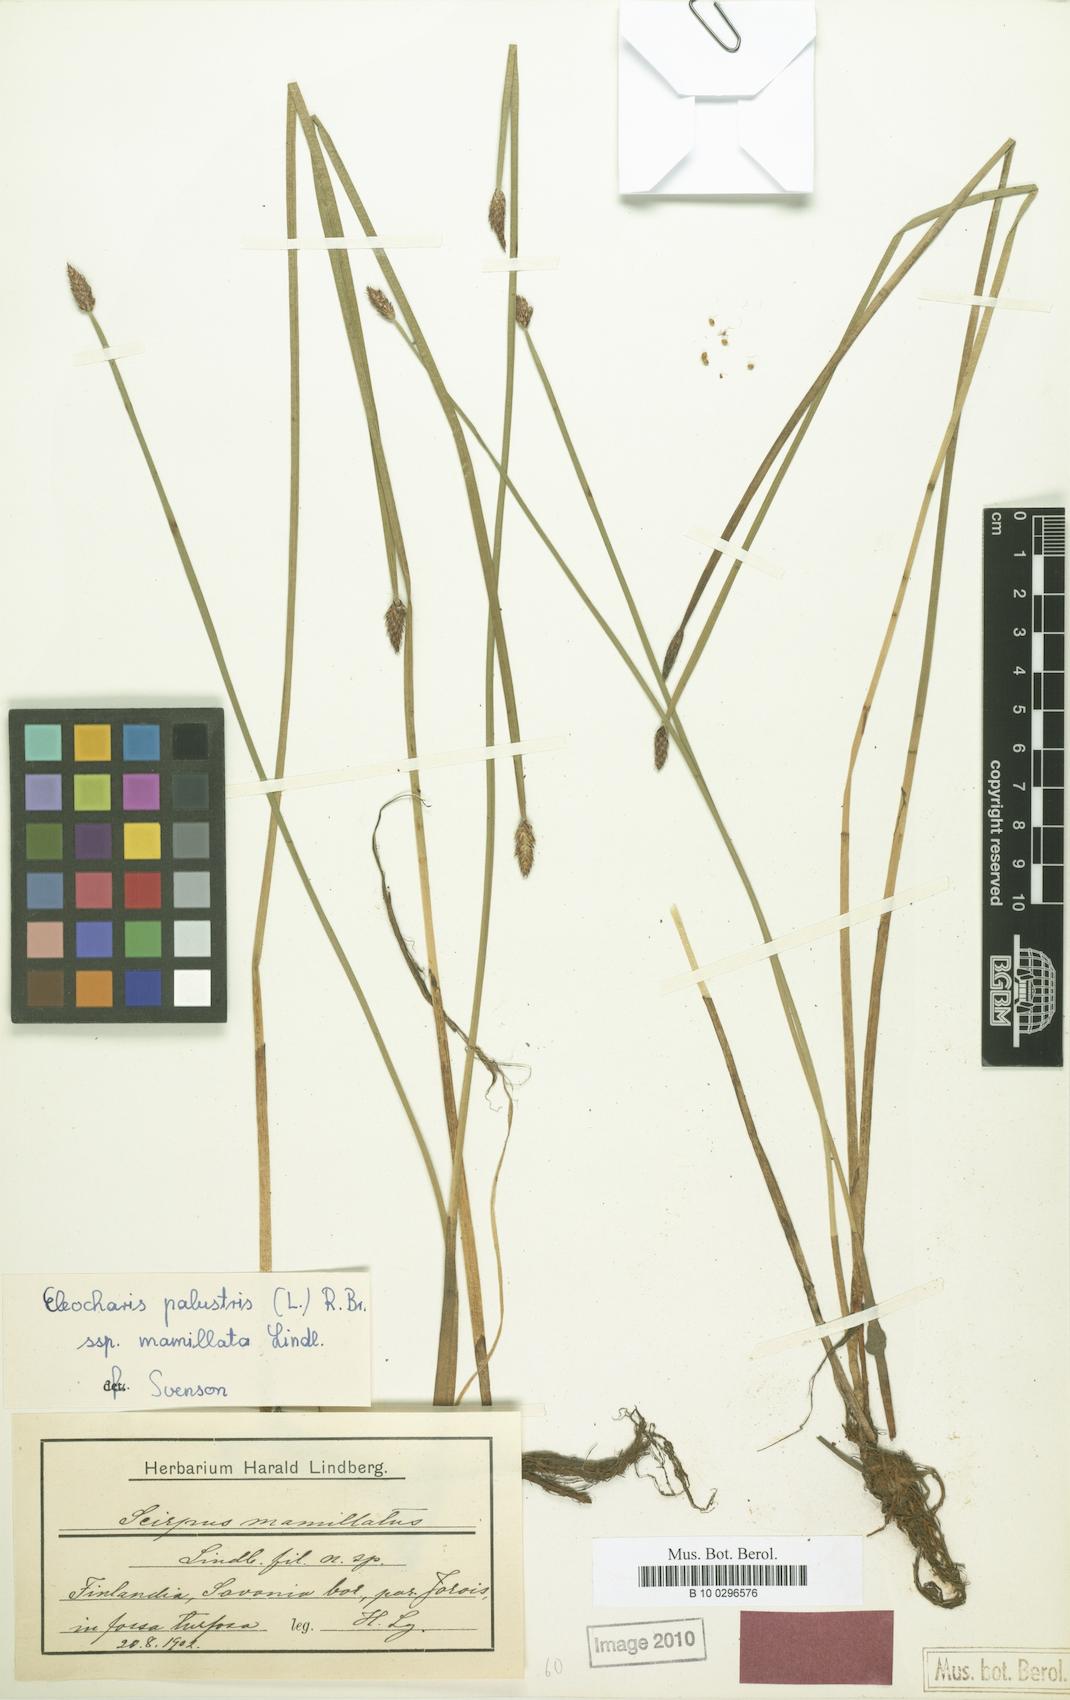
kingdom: Plantae
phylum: Tracheophyta
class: Liliopsida
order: Poales
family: Cyperaceae
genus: Eleocharis
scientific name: Eleocharis mamillata
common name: Northern spike-rush
